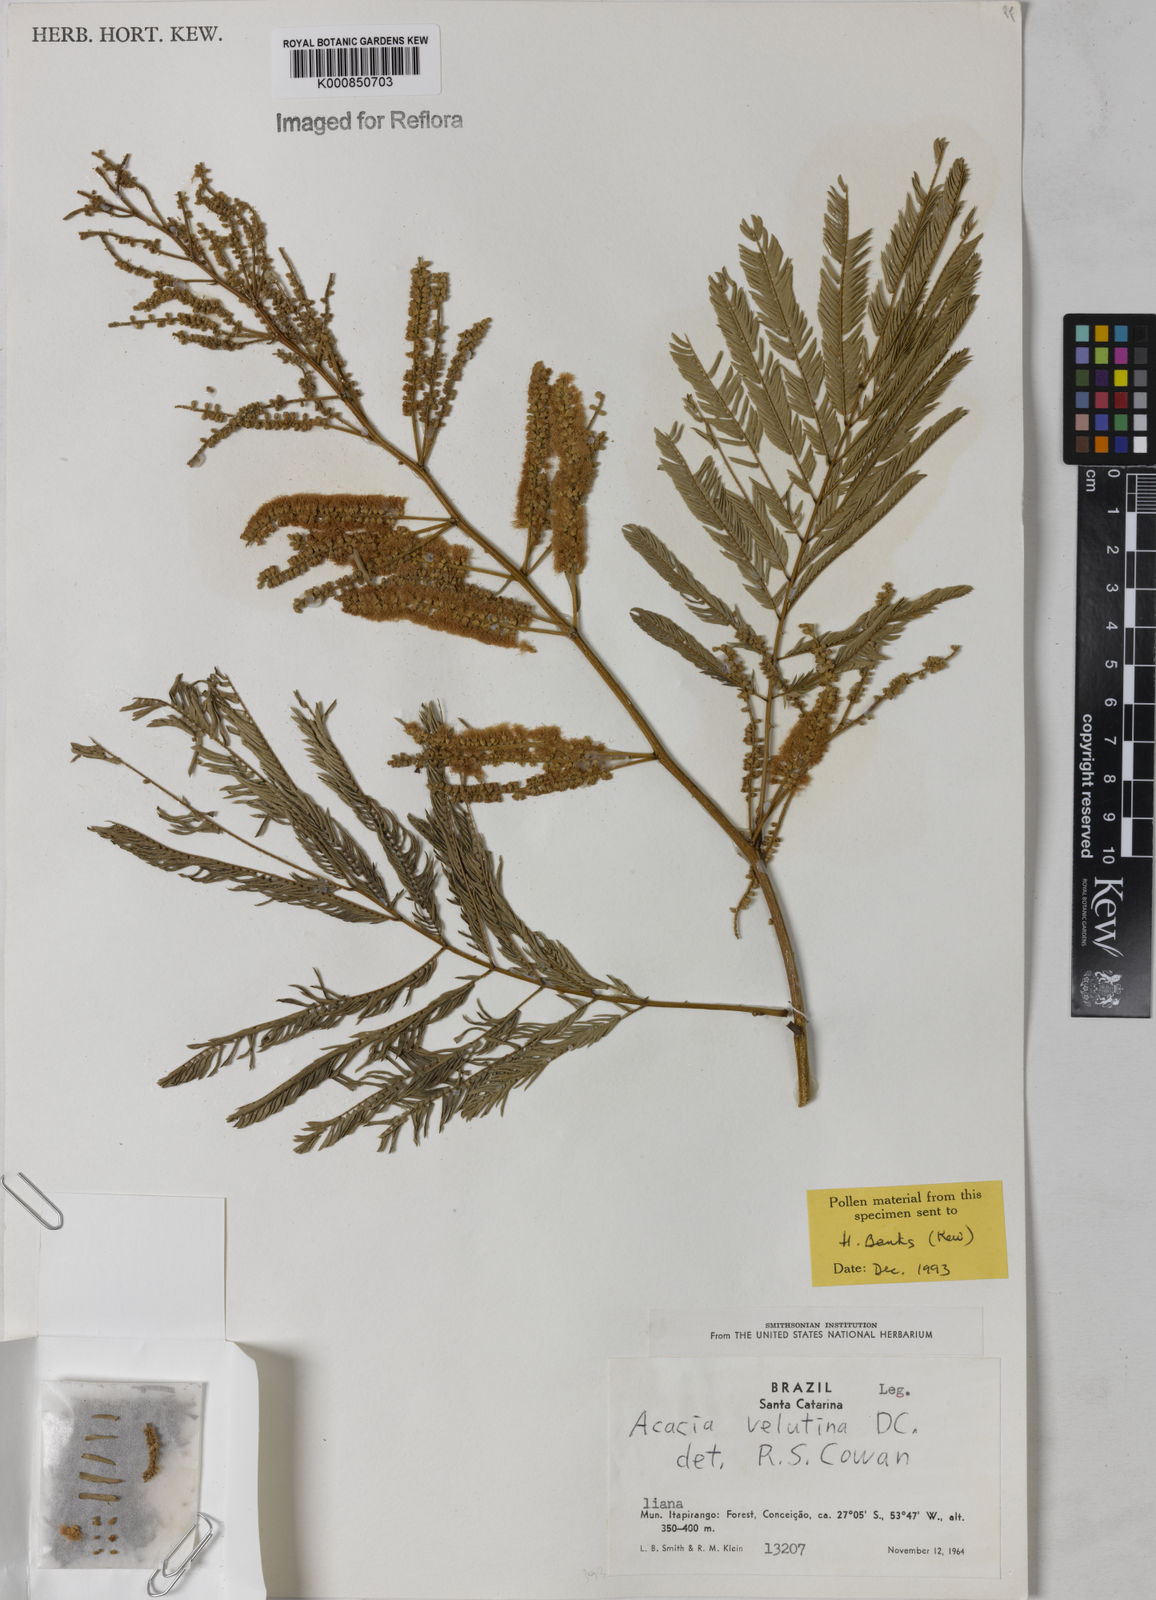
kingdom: Plantae
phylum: Tracheophyta
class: Magnoliopsida
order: Fabales
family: Fabaceae
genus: Senegalia
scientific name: Senegalia velutina
